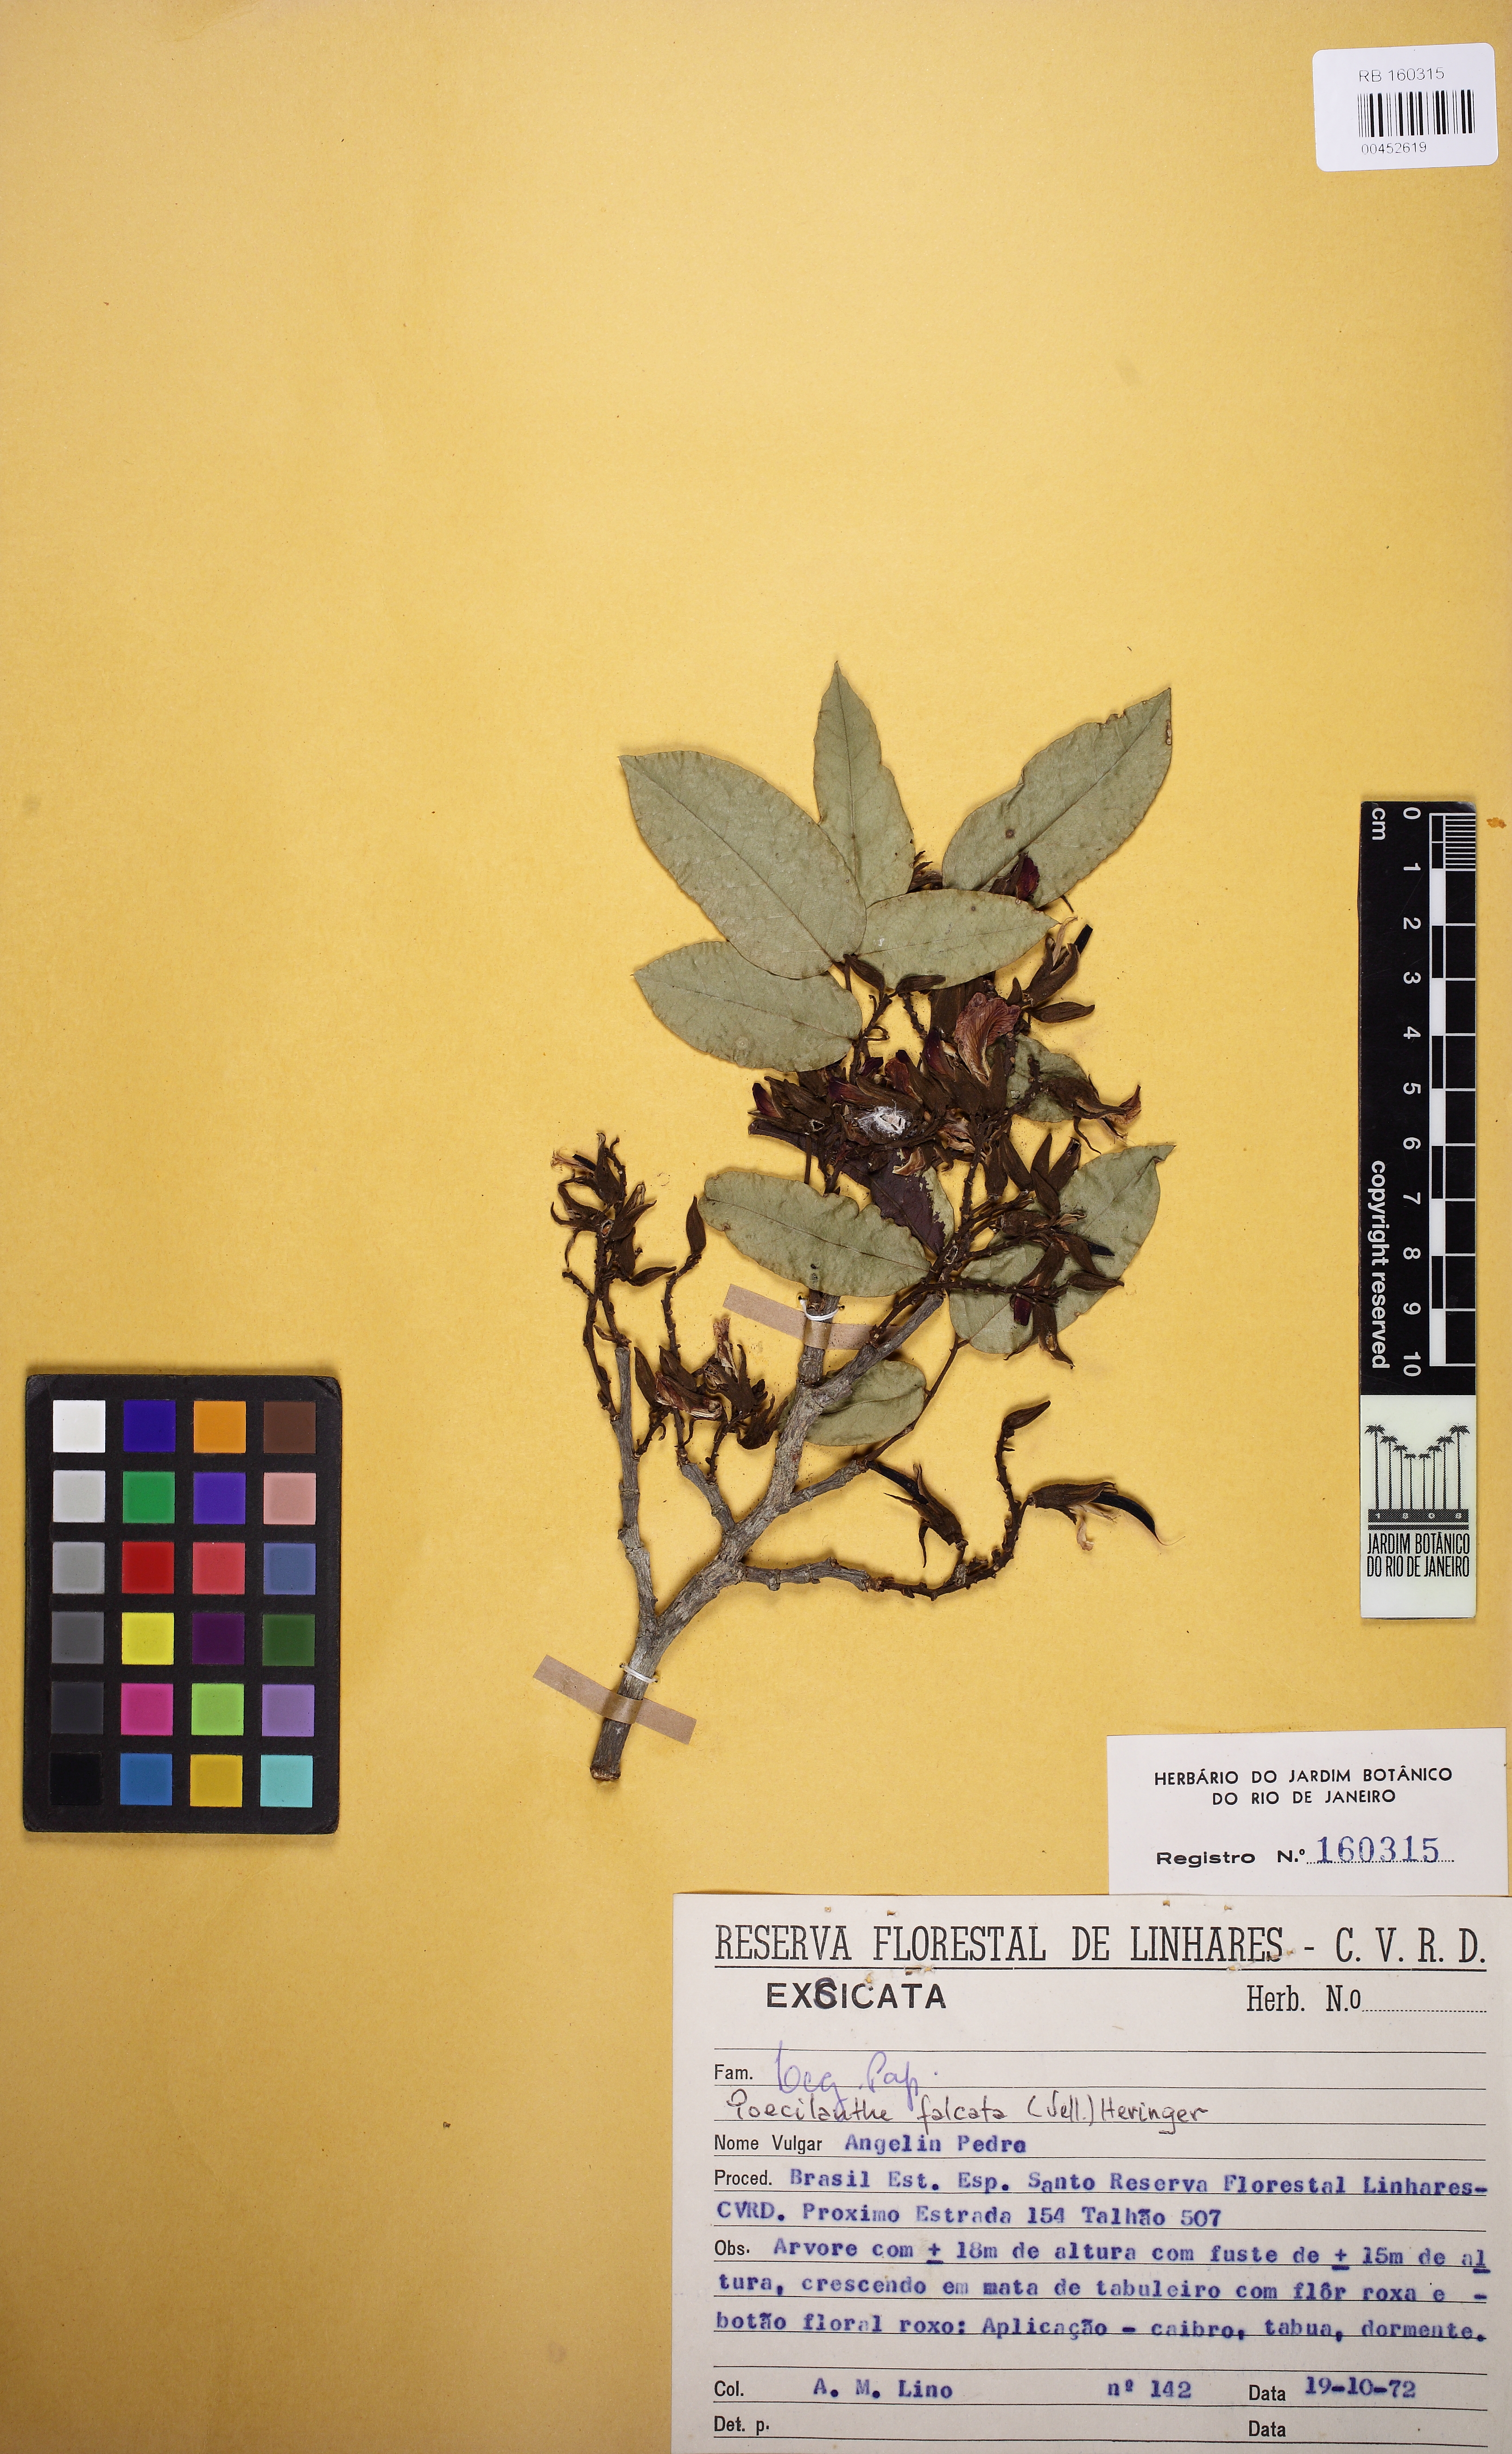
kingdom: Plantae
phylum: Tracheophyta
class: Magnoliopsida
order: Fabales
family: Fabaceae
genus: Poecilanthe
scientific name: Poecilanthe falcata
